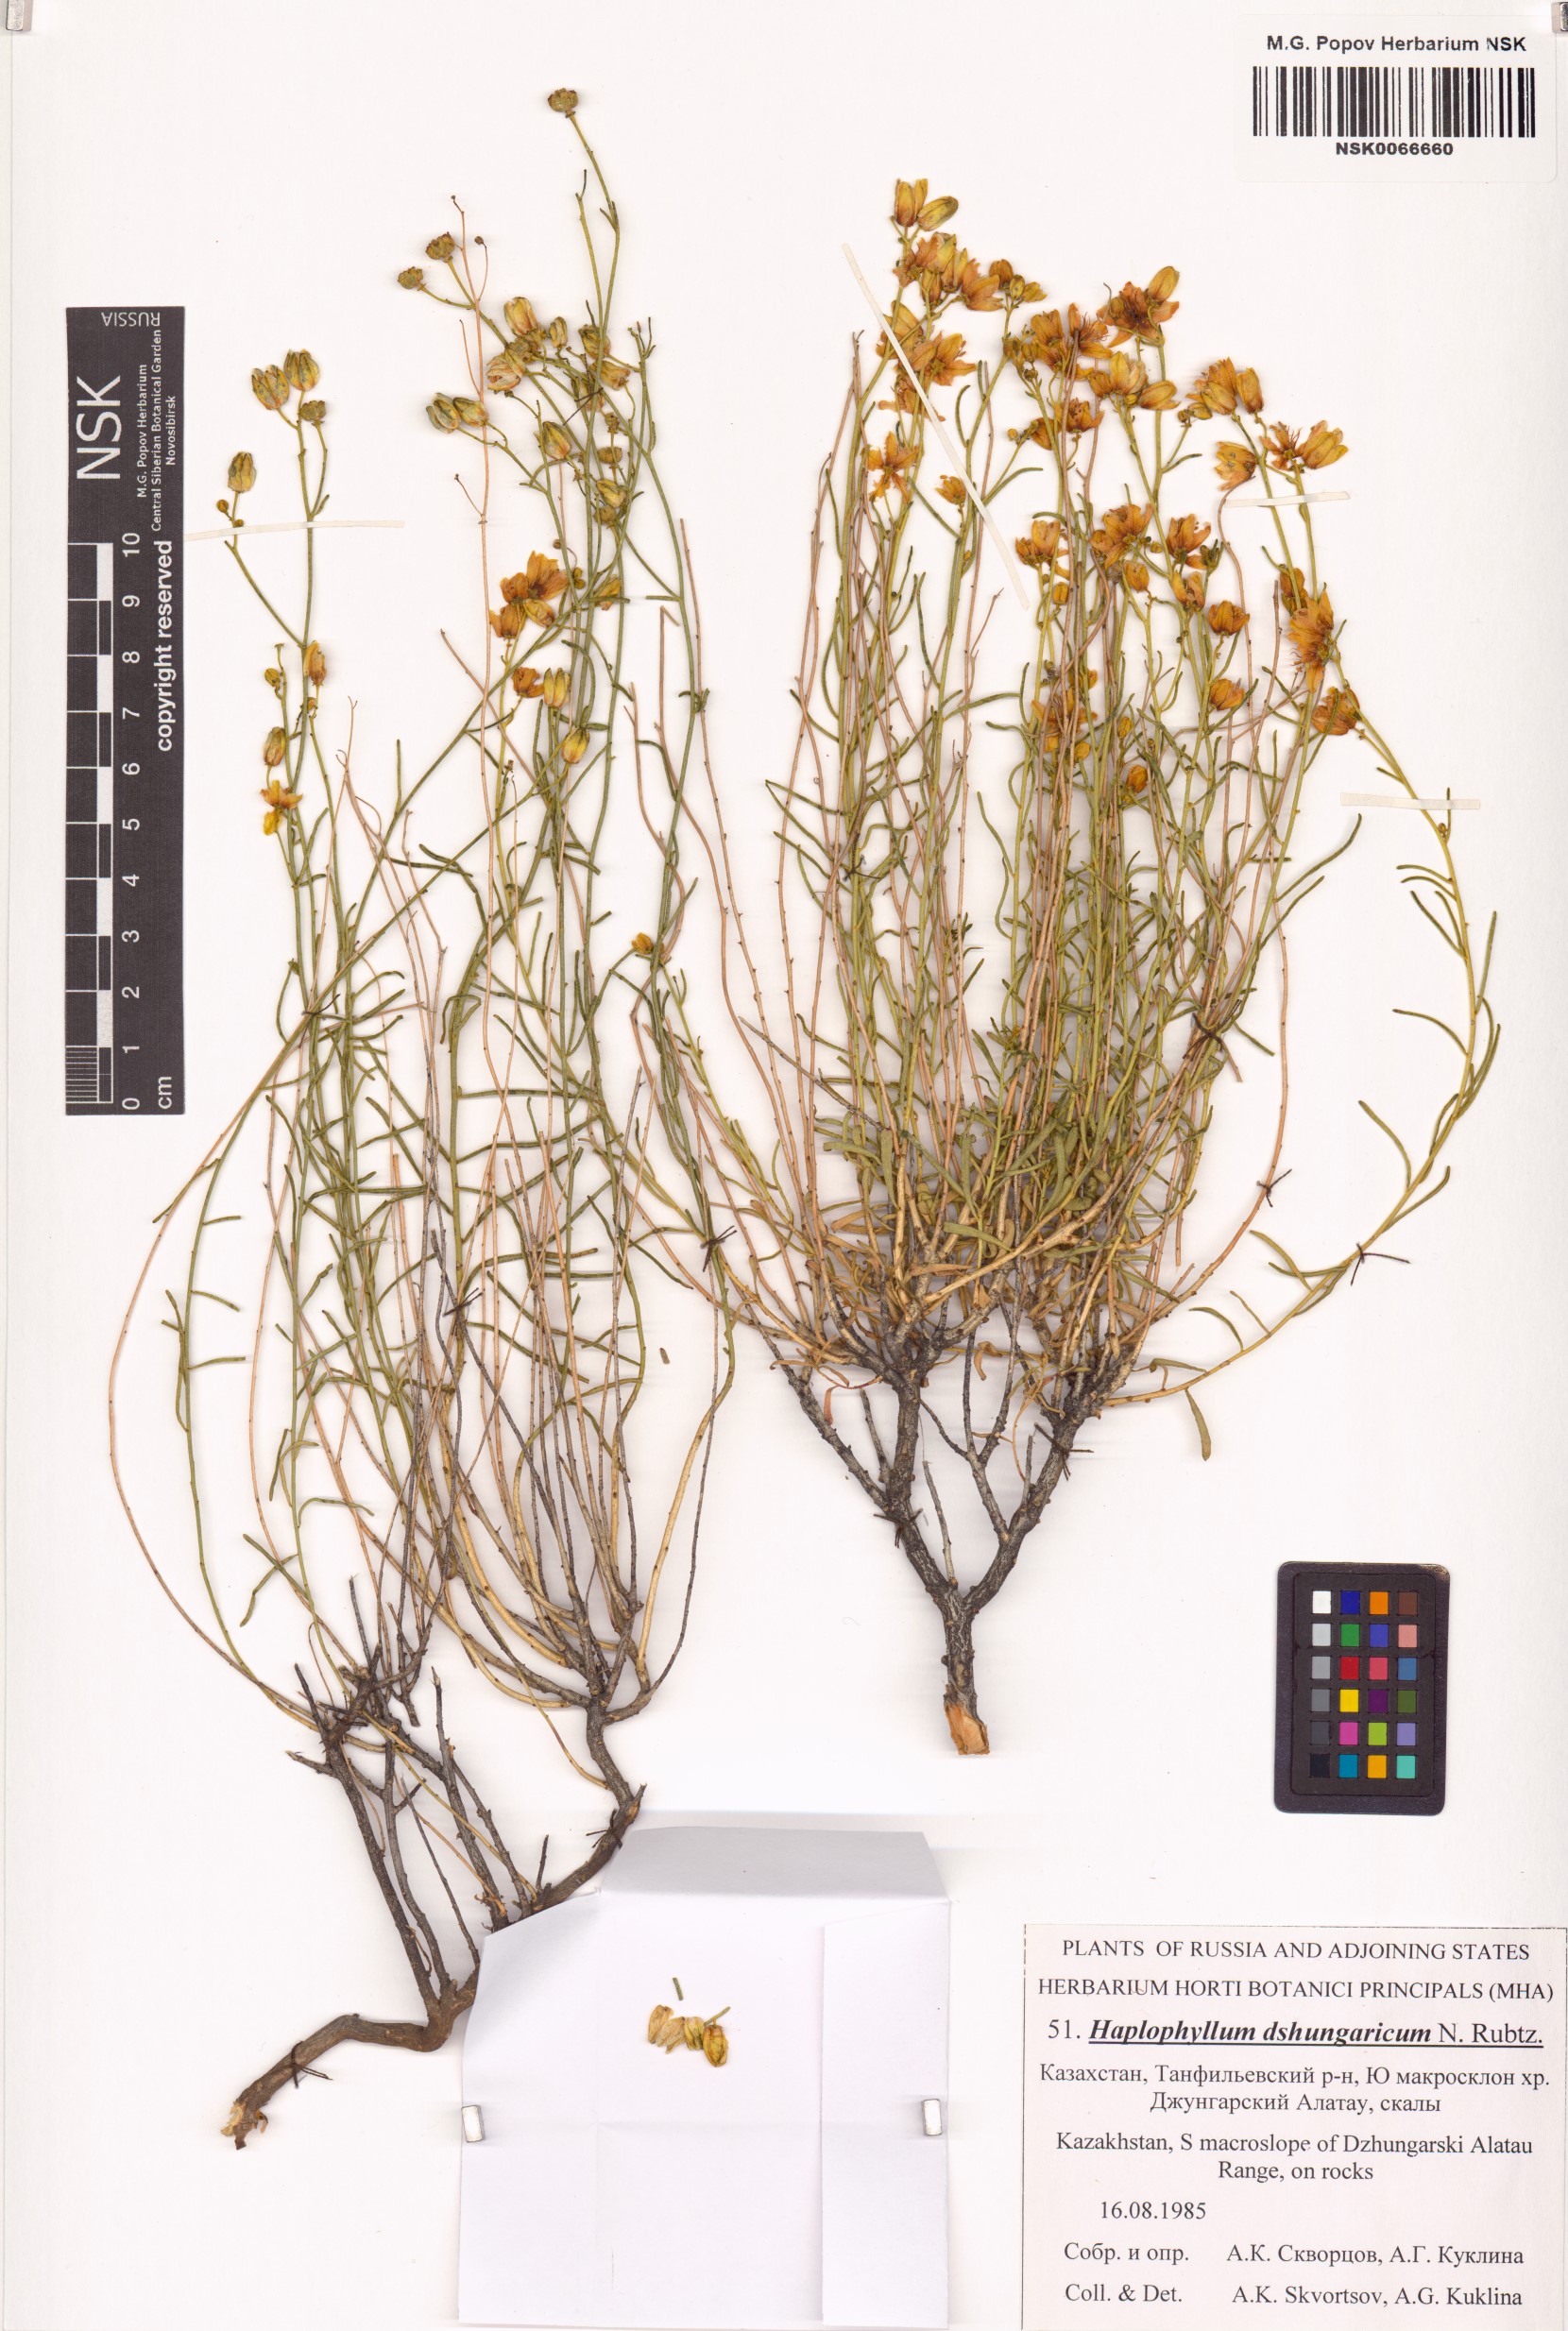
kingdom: Plantae
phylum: Tracheophyta
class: Magnoliopsida
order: Sapindales
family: Rutaceae
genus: Haplophyllum
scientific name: Haplophyllum dshungaricum
